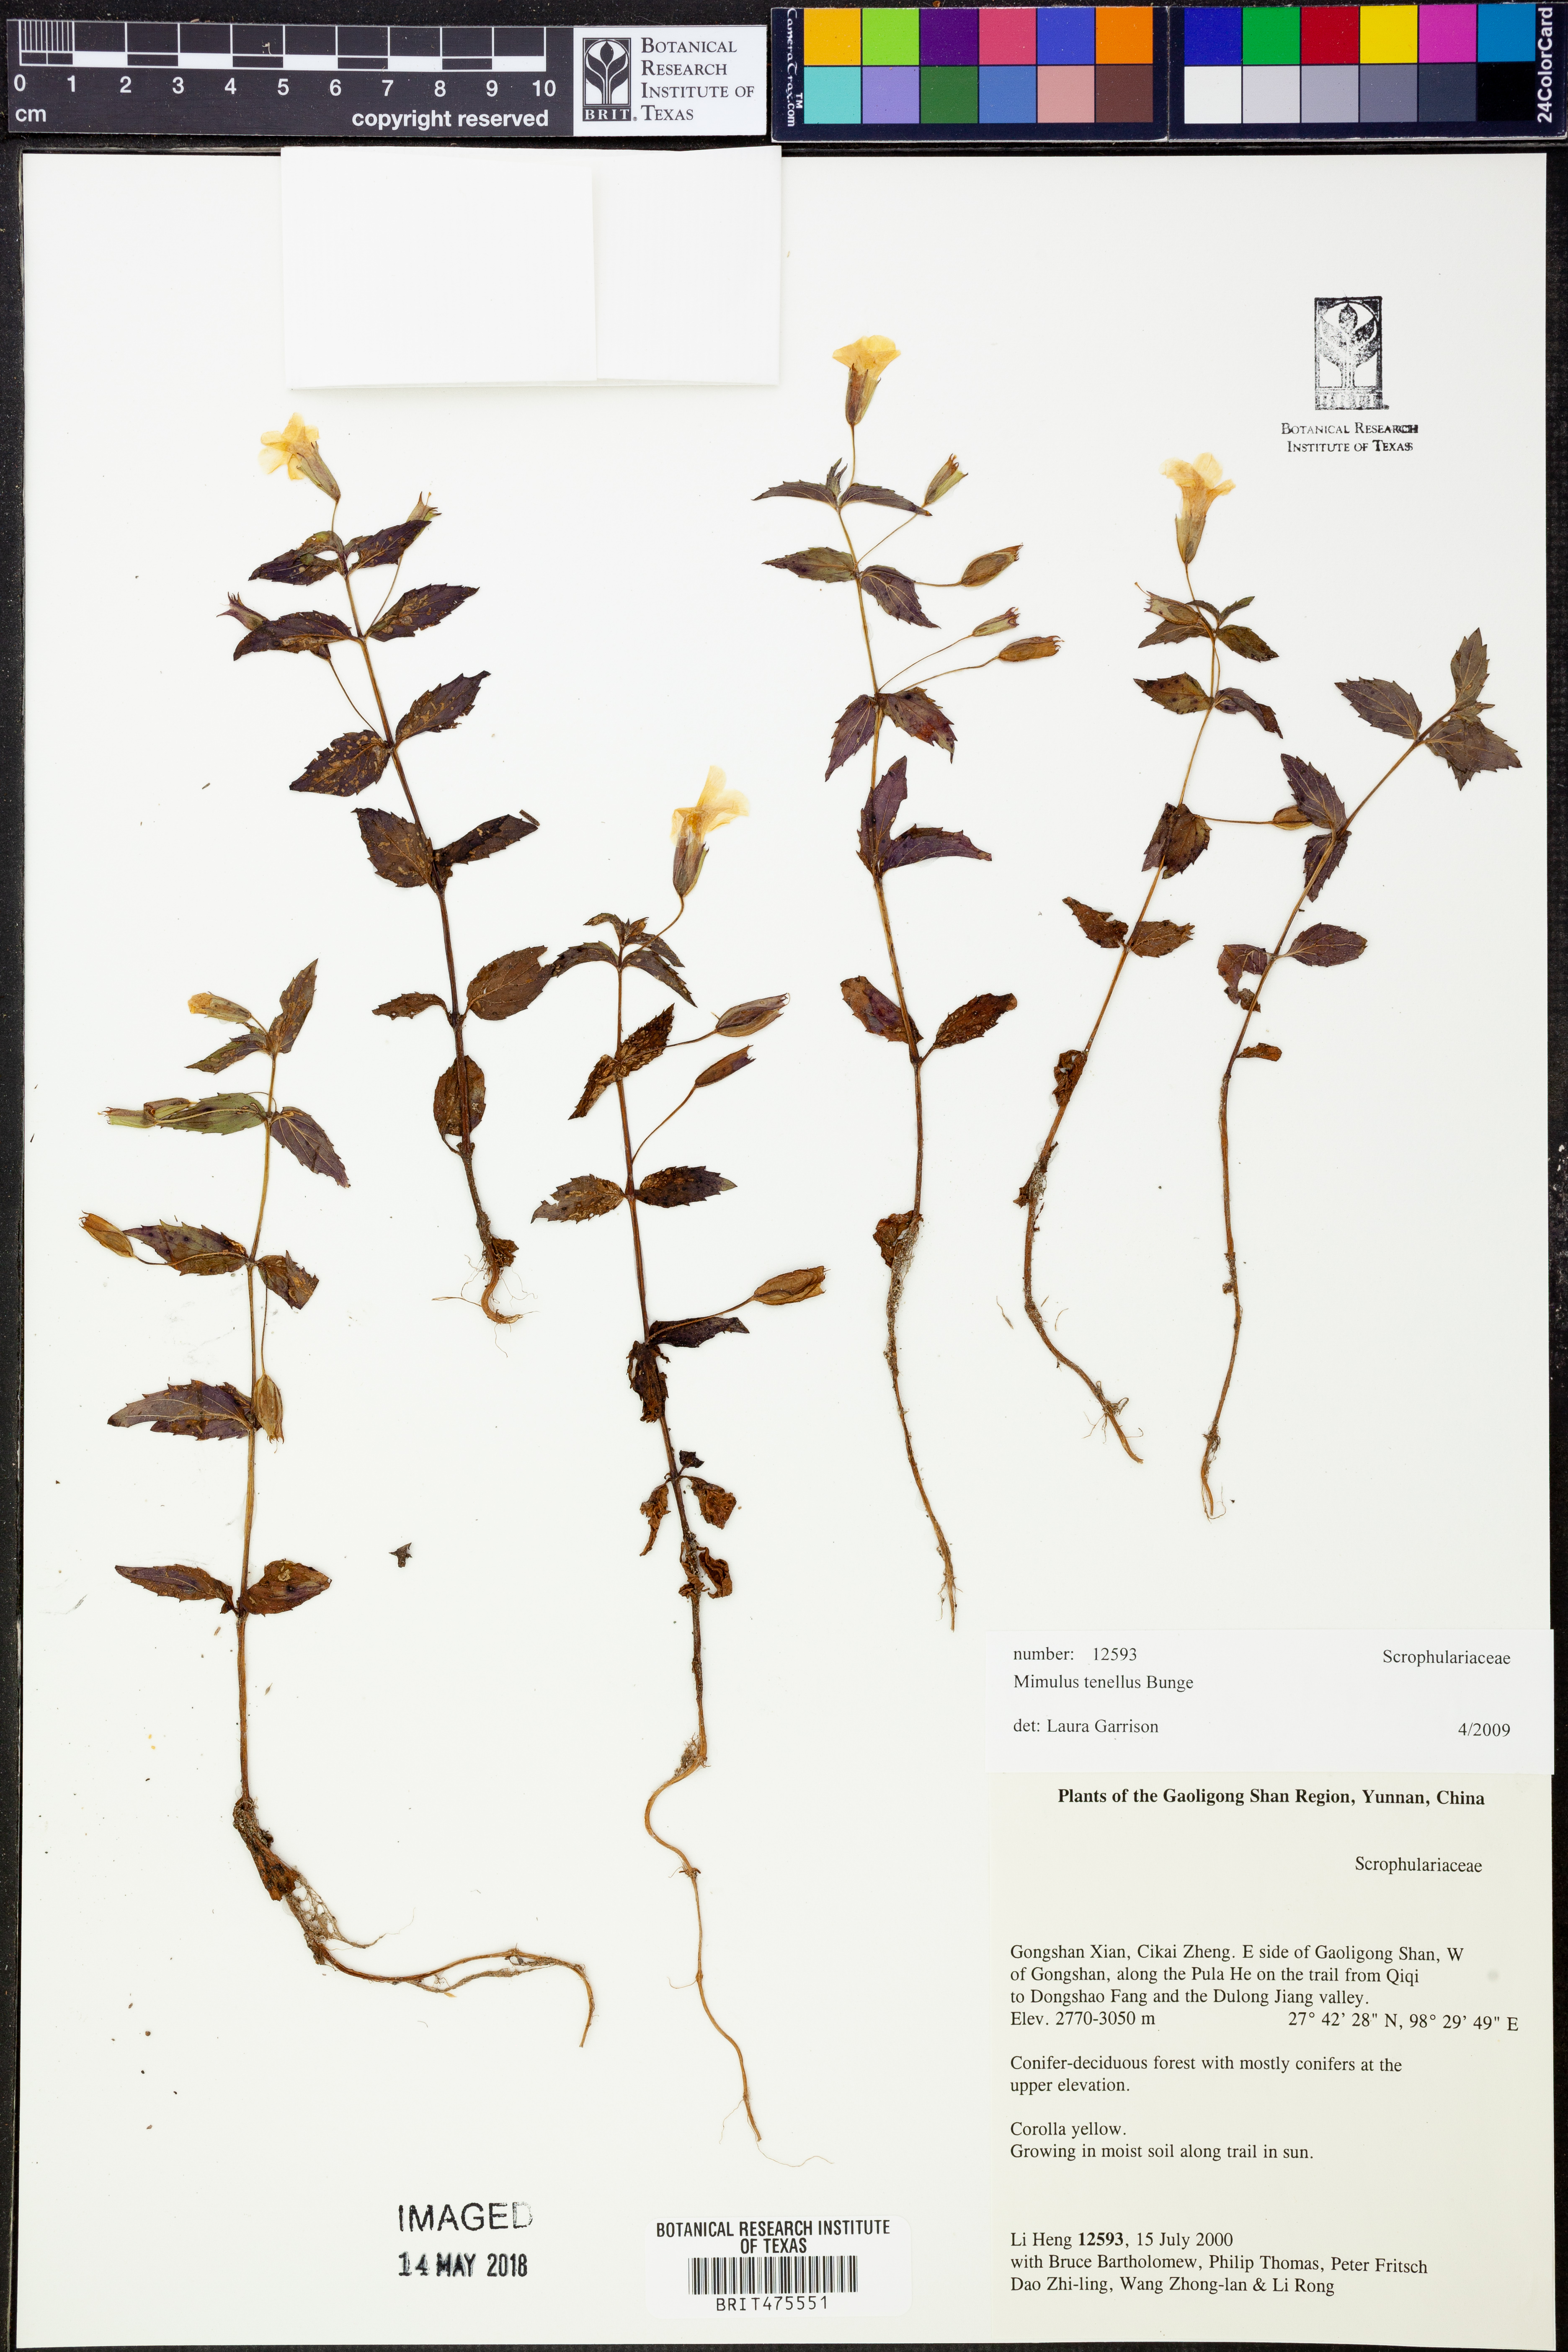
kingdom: Plantae
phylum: Tracheophyta
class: Magnoliopsida
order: Lamiales
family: Phrymaceae
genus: Erythranthe
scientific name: Erythranthe microphylla
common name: Bentham's monkeyflower
